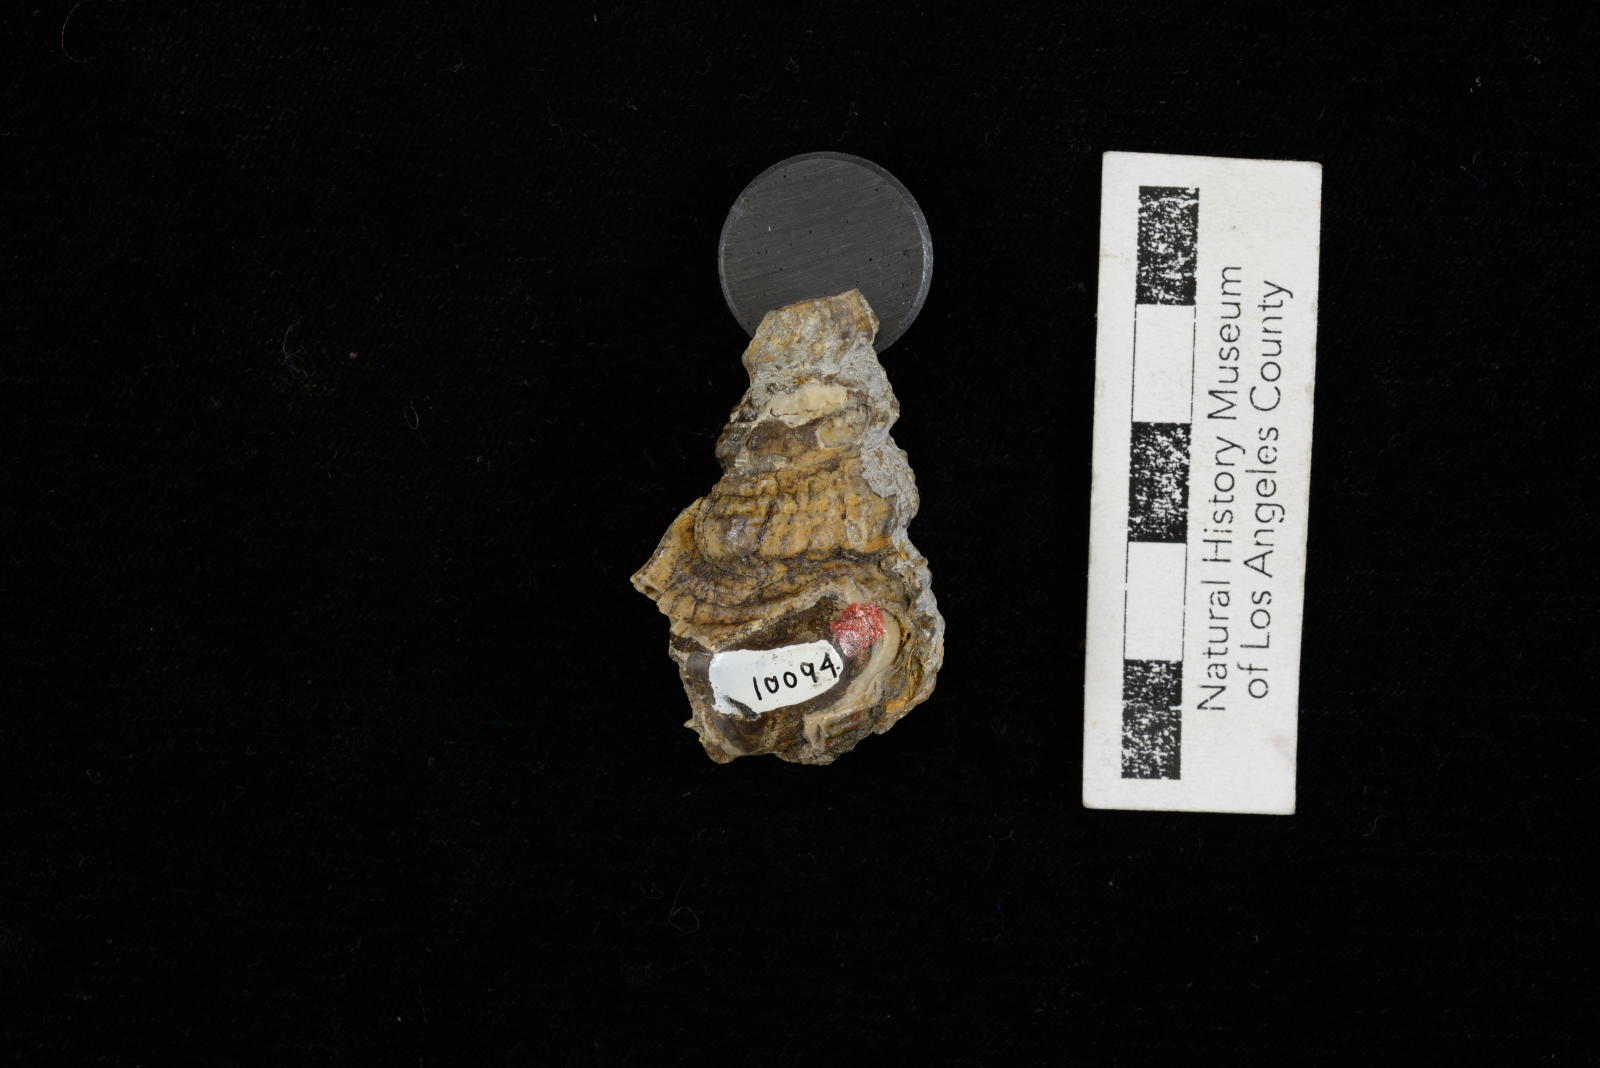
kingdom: Animalia
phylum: Mollusca
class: Gastropoda
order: Littorinimorpha
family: Aporrhaidae
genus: Anchura
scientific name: Anchura phaba
